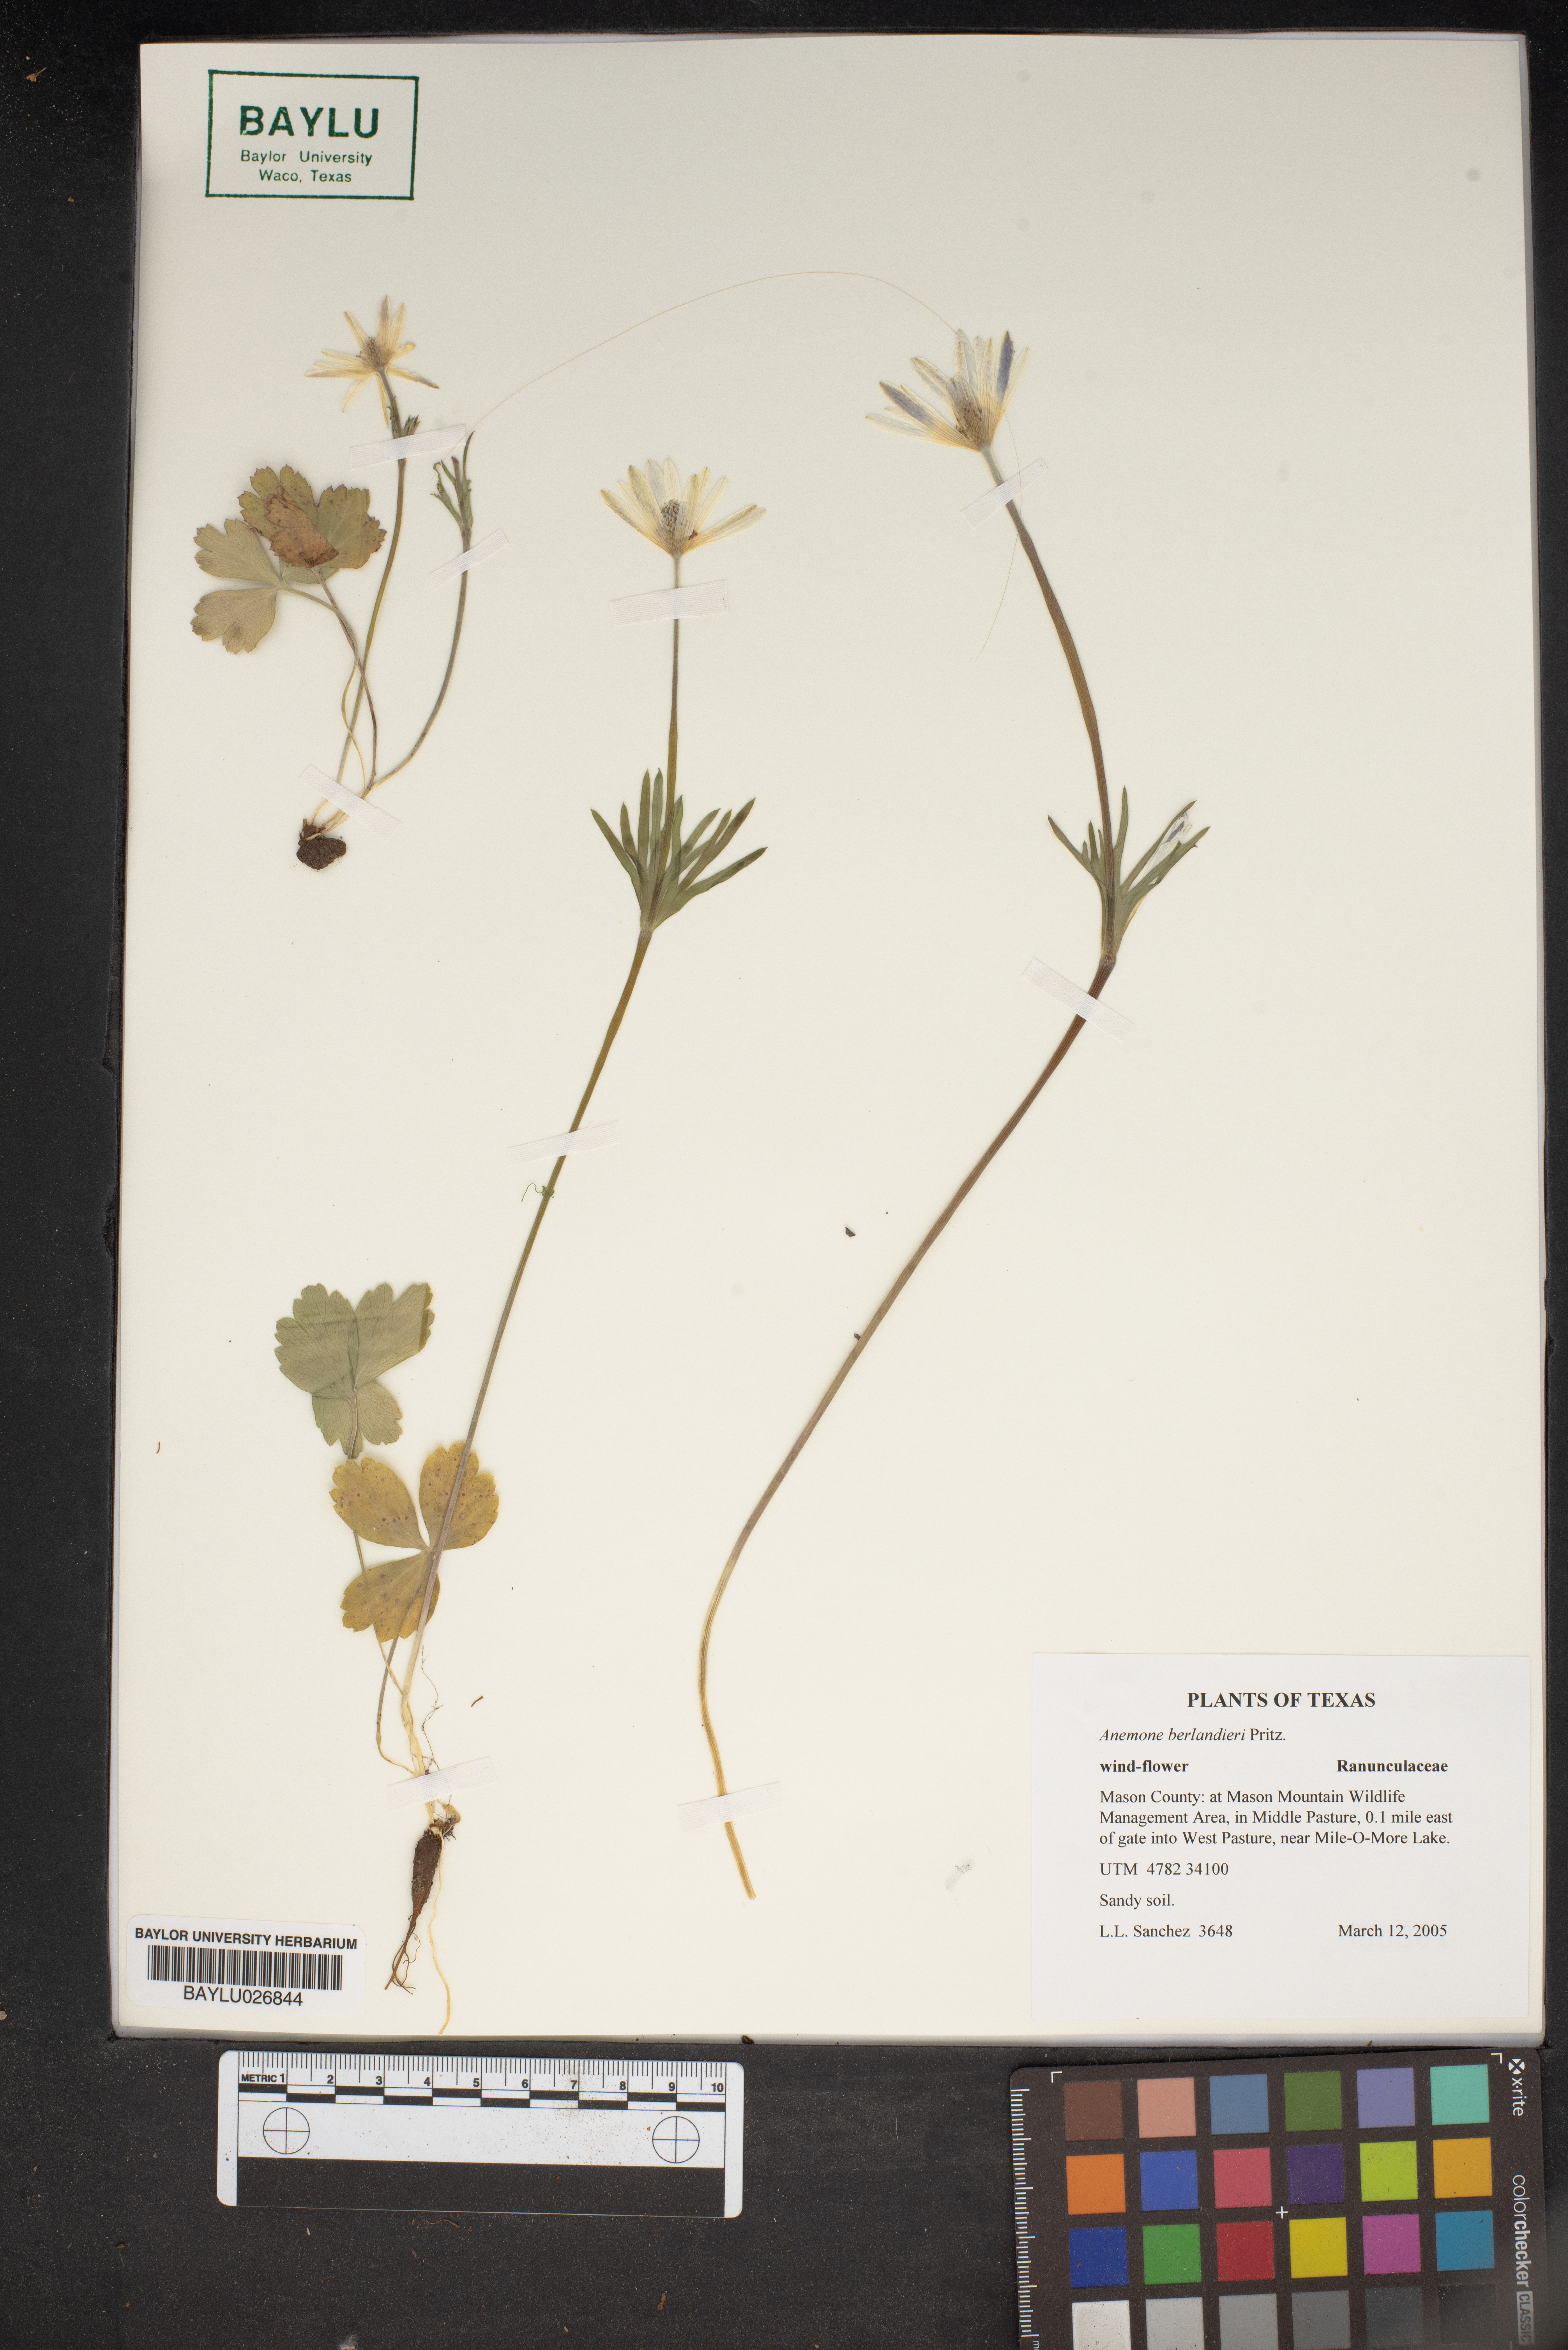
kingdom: Plantae
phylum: Tracheophyta
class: Magnoliopsida
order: Ranunculales
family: Ranunculaceae
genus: Anemone
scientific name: Anemone berlandieri
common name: Ten-petal anemone
